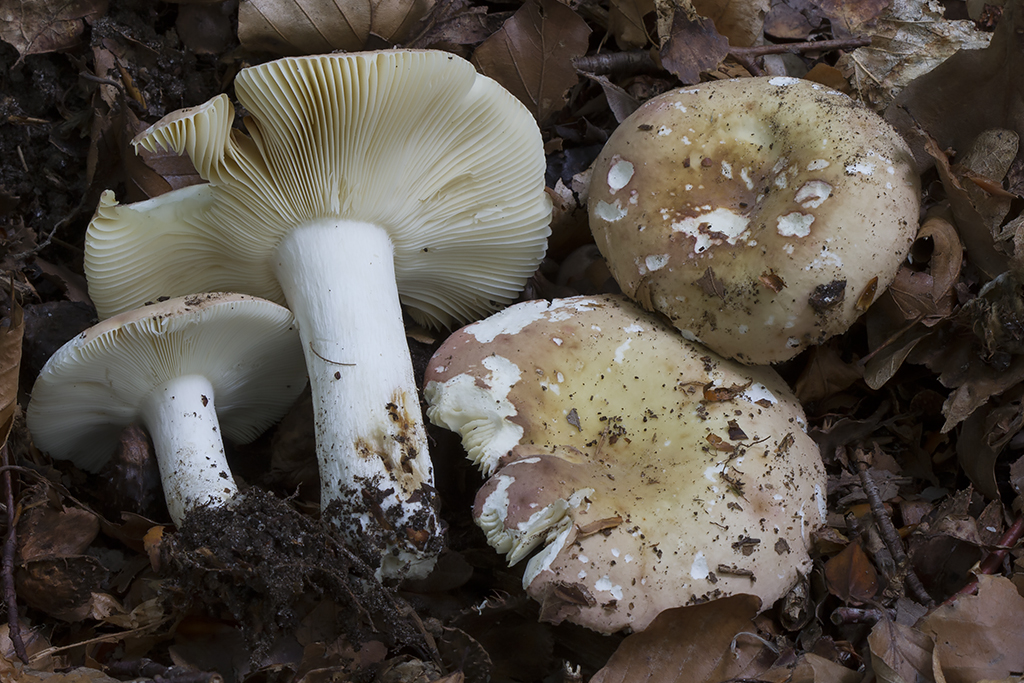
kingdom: Fungi
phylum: Basidiomycota
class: Agaricomycetes
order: Russulales
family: Russulaceae
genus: Russula
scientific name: Russula curtipes
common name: kortstokket skørhat
